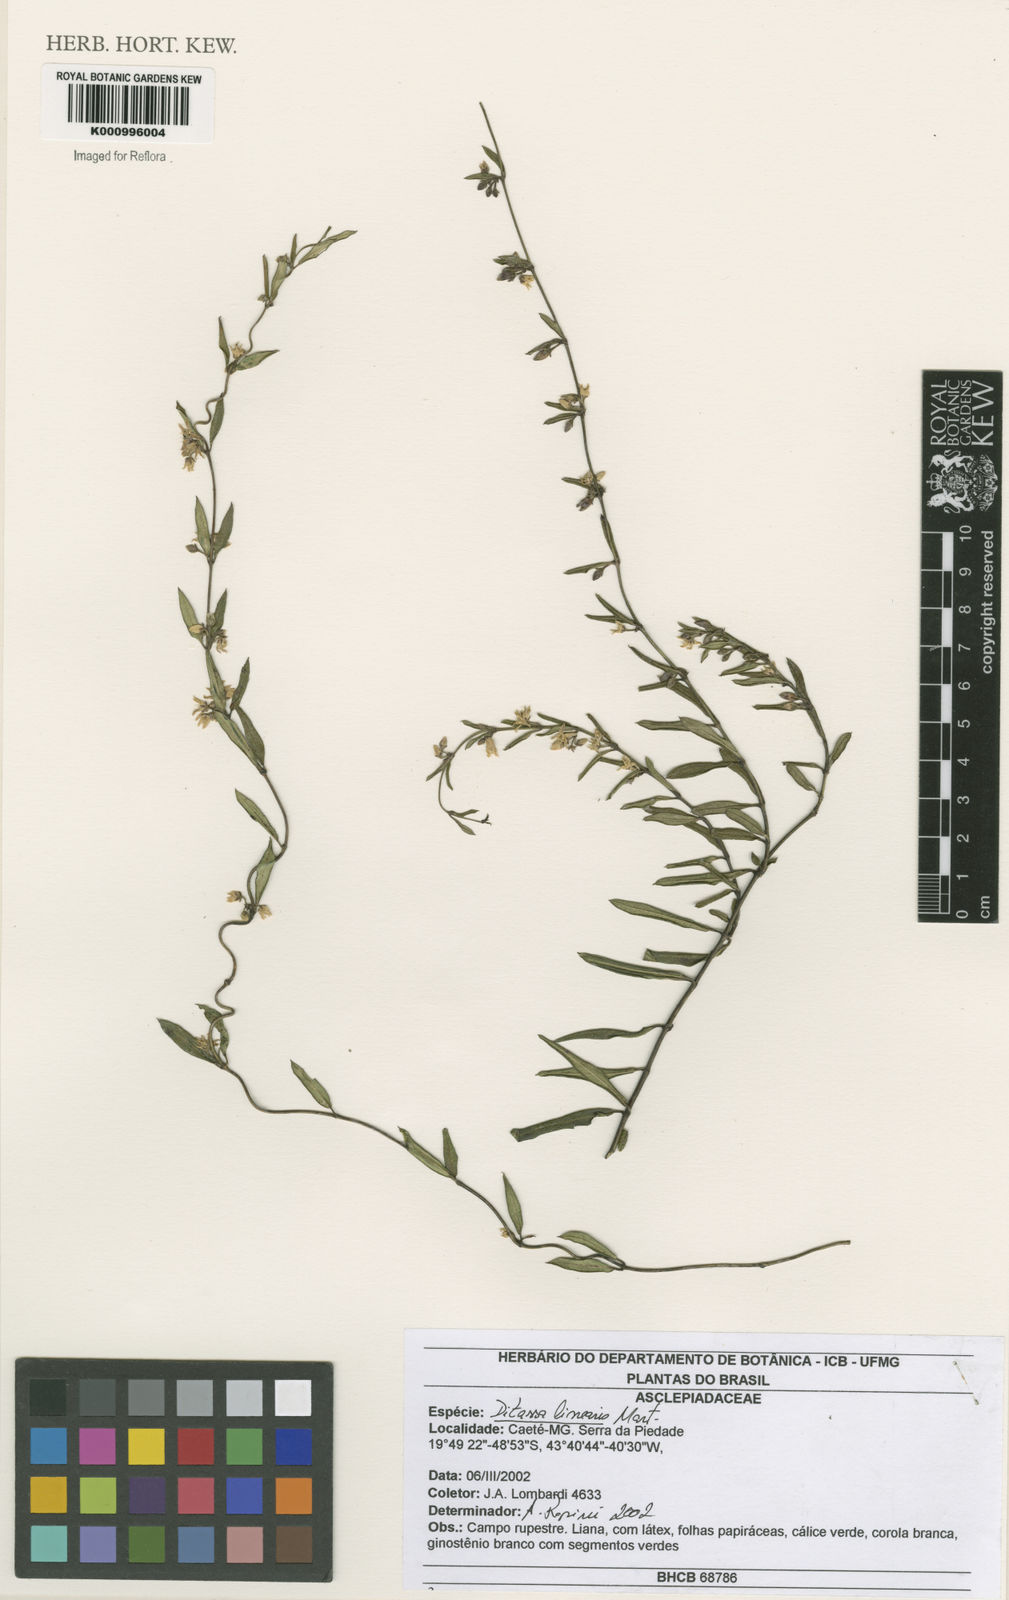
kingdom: Plantae
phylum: Tracheophyta
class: Magnoliopsida
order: Gentianales
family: Apocynaceae
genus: Ditassa
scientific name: Ditassa linearis
